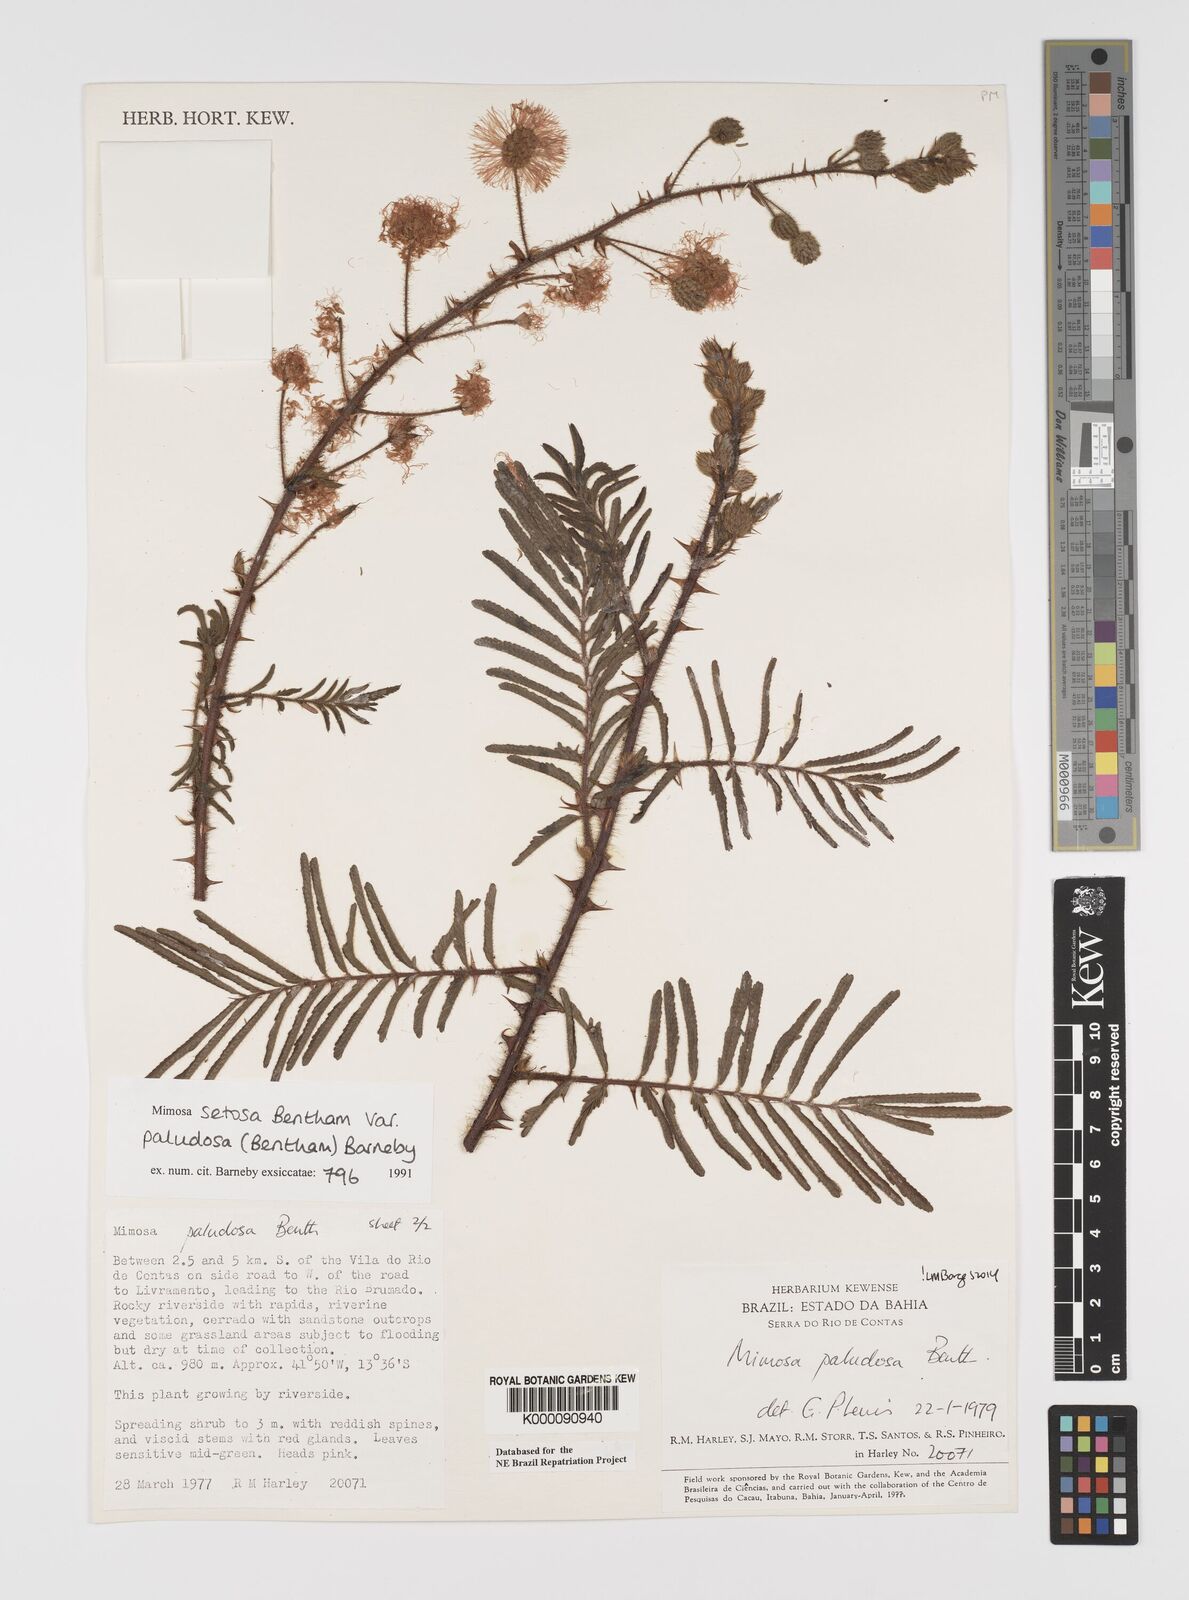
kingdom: Plantae
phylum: Tracheophyta
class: Magnoliopsida
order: Fabales
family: Fabaceae
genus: Mimosa
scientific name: Mimosa paludosa
